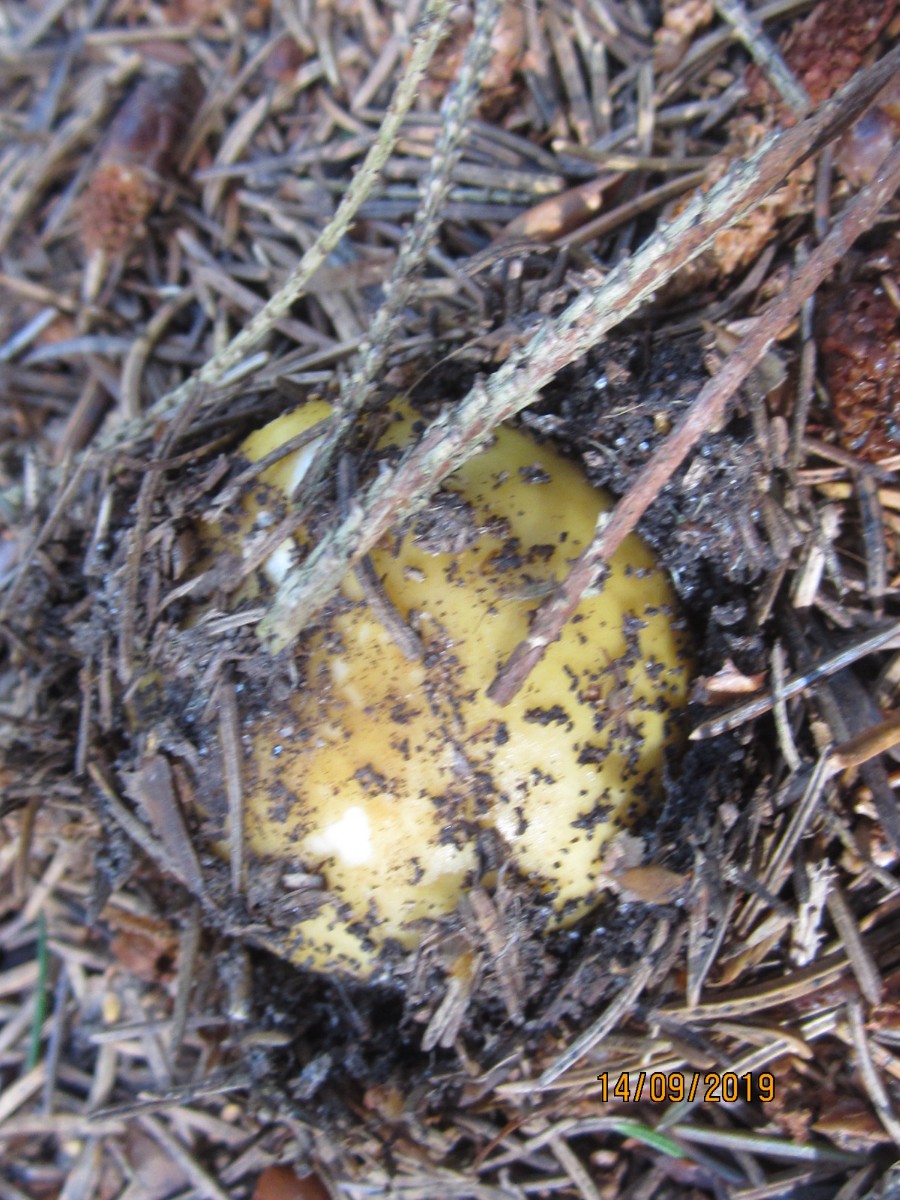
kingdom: Fungi
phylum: Basidiomycota
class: Agaricomycetes
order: Russulales
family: Russulaceae
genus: Russula
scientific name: Russula ochroleuca
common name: okkergul skørhat
